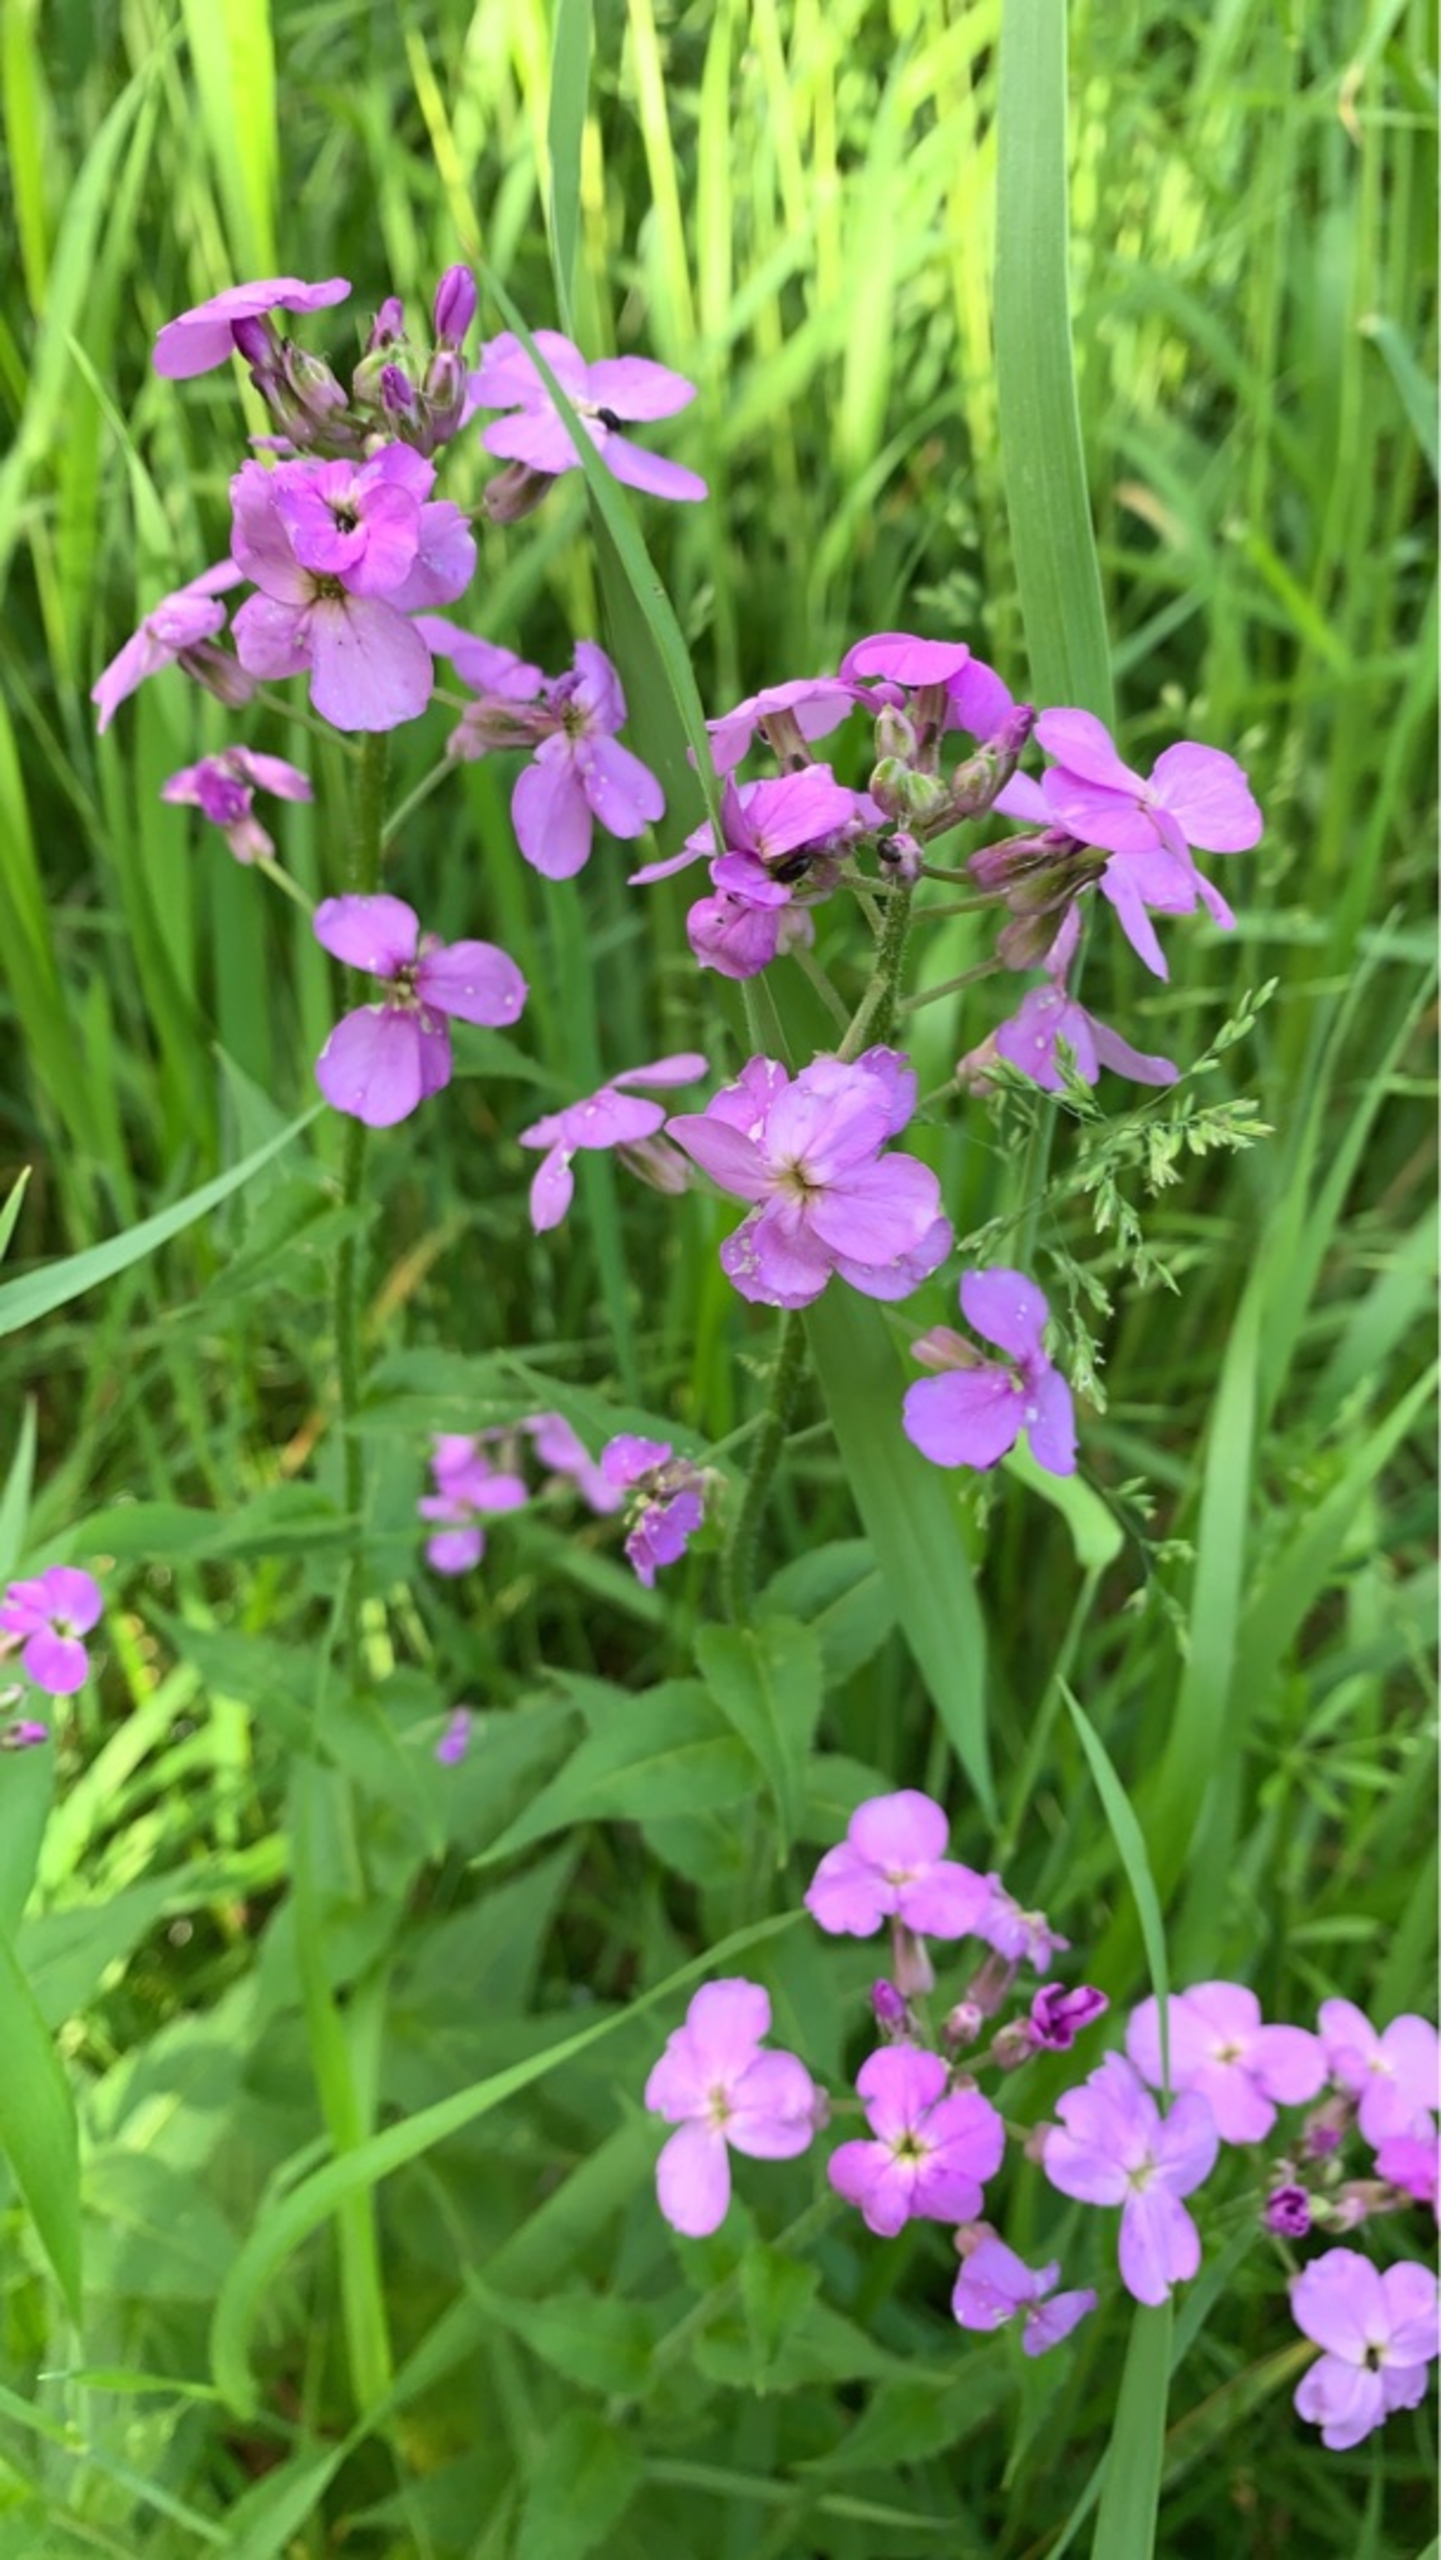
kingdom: Plantae
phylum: Tracheophyta
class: Magnoliopsida
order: Brassicales
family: Brassicaceae
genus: Hesperis
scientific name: Hesperis matronalis
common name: Aftenstjerne
